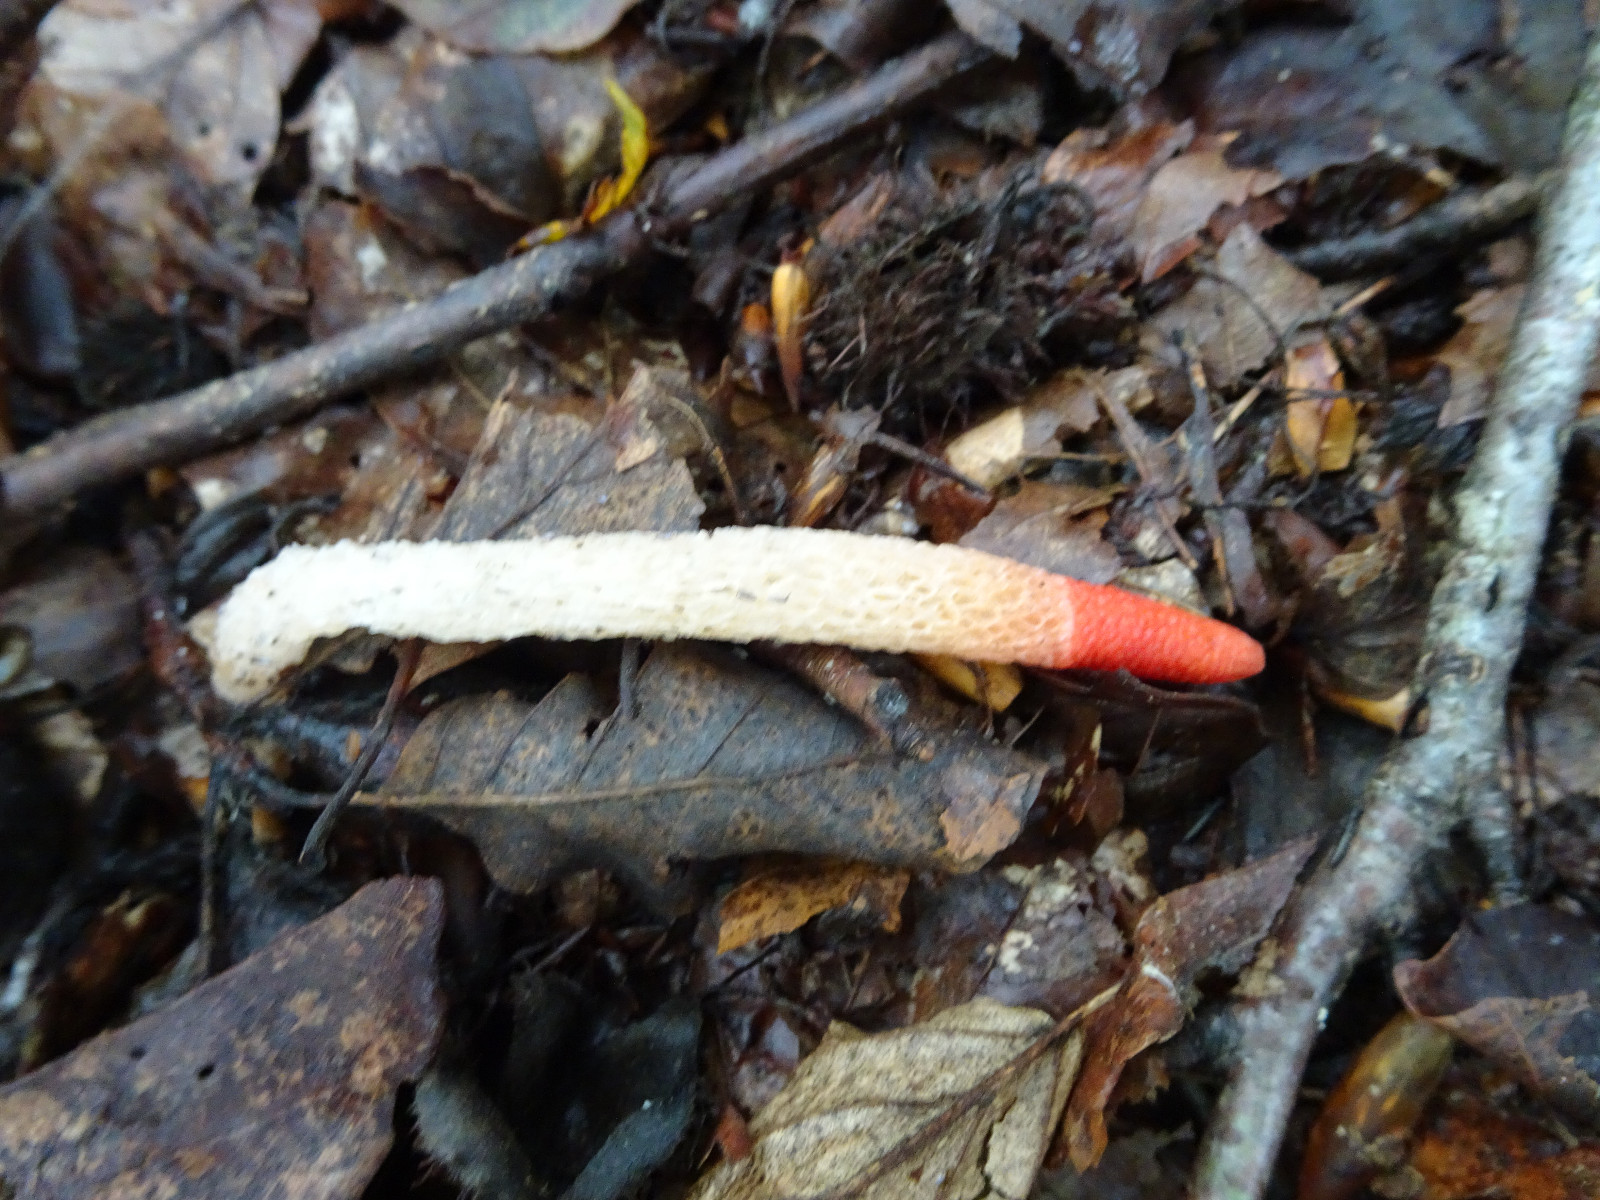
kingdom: Fungi
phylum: Basidiomycota
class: Agaricomycetes
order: Phallales
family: Phallaceae
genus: Mutinus
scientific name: Mutinus caninus
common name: hunde-stinksvamp
